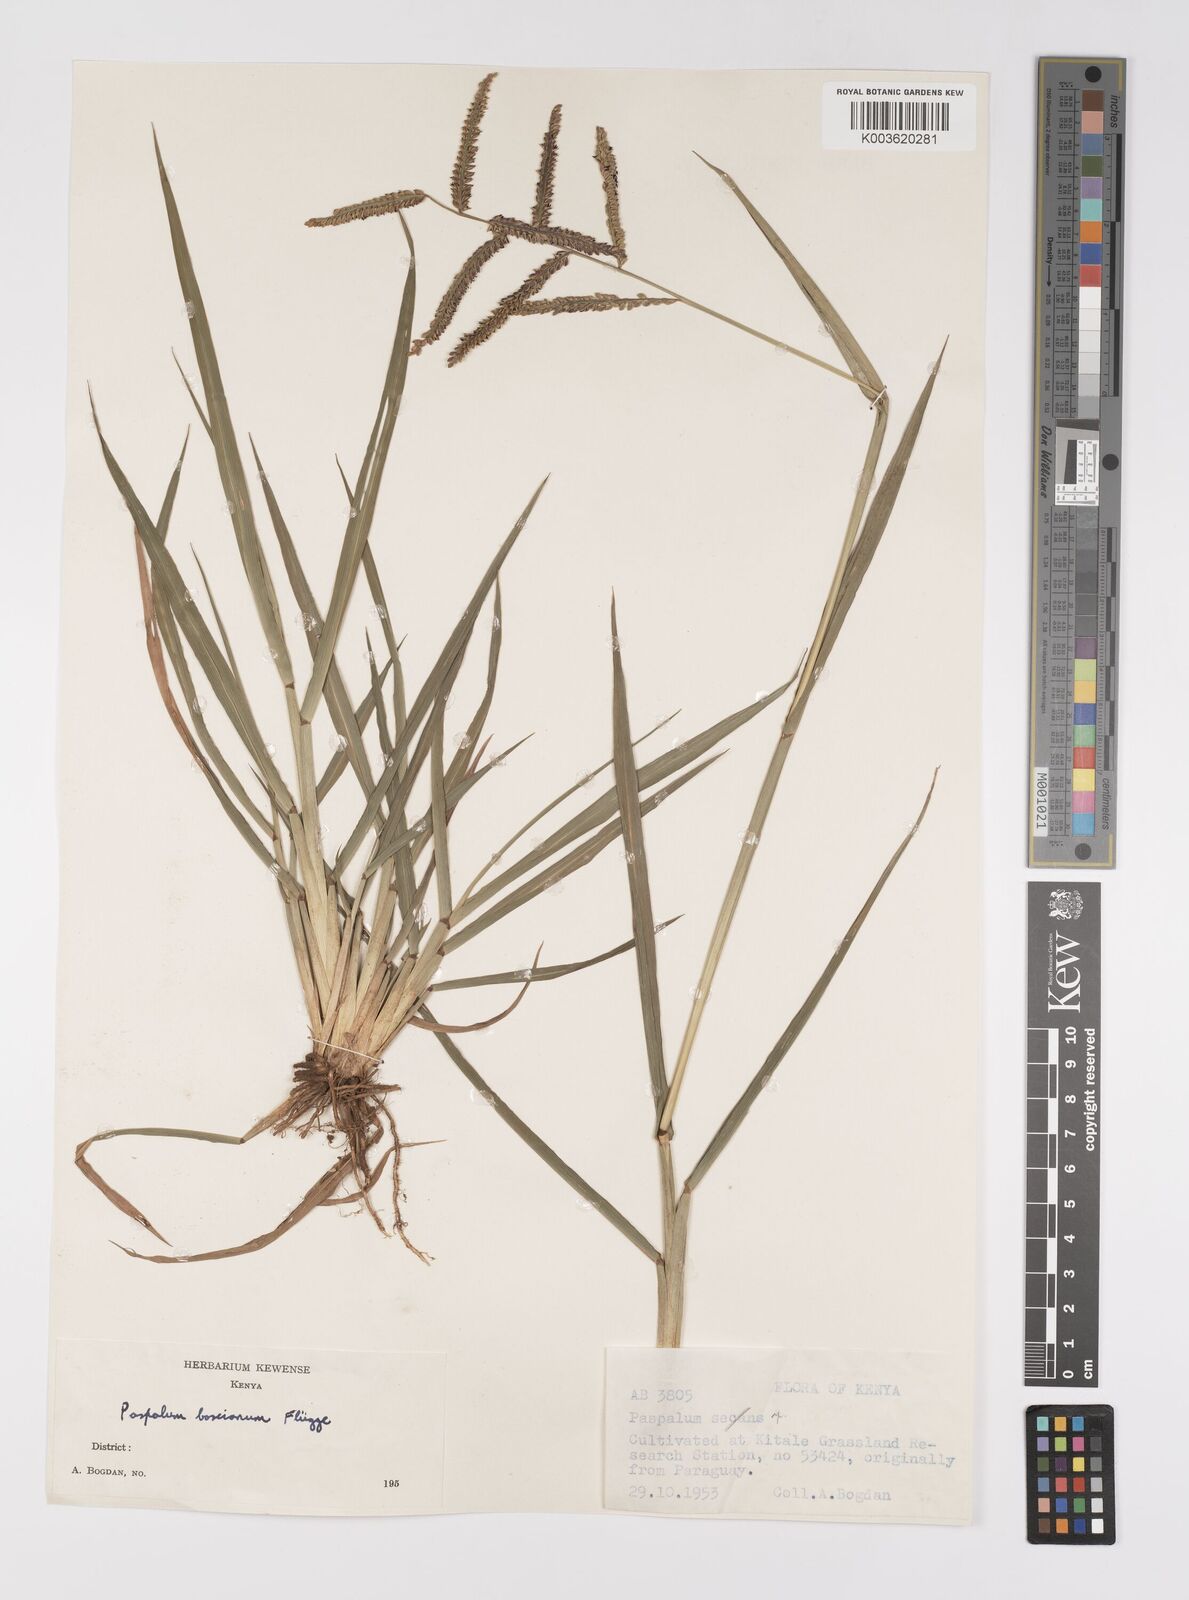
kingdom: Plantae
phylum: Tracheophyta
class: Liliopsida
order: Poales
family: Poaceae
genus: Paspalum
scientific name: Paspalum scrobiculatum
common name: Kodo millet
